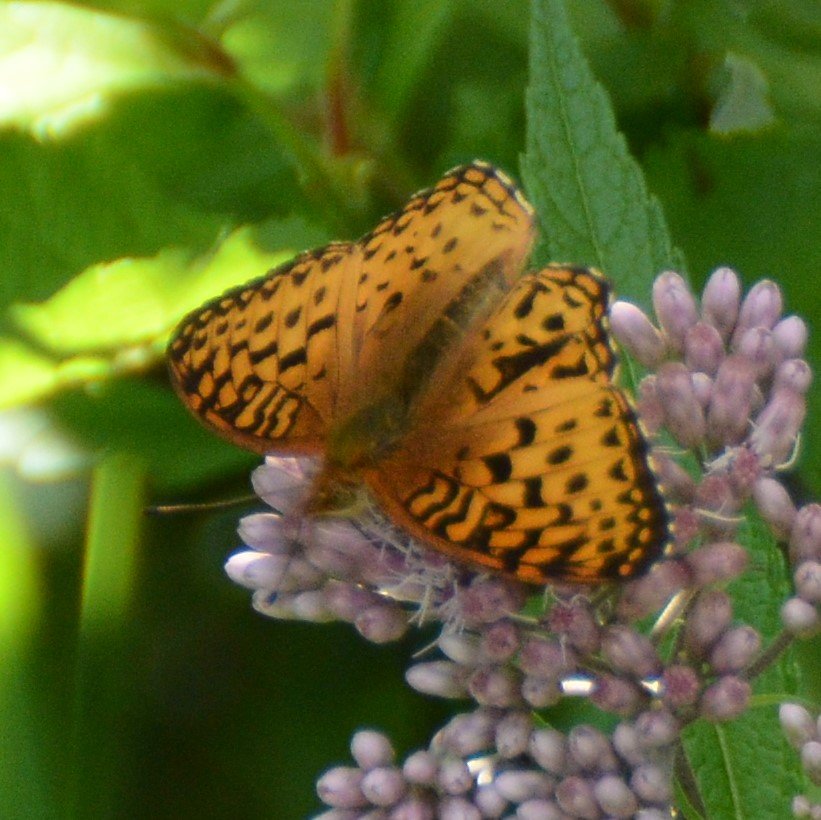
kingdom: Animalia
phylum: Arthropoda
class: Insecta
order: Lepidoptera
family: Nymphalidae
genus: Speyeria
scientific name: Speyeria aphrodite
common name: Aphrodite Fritillary
